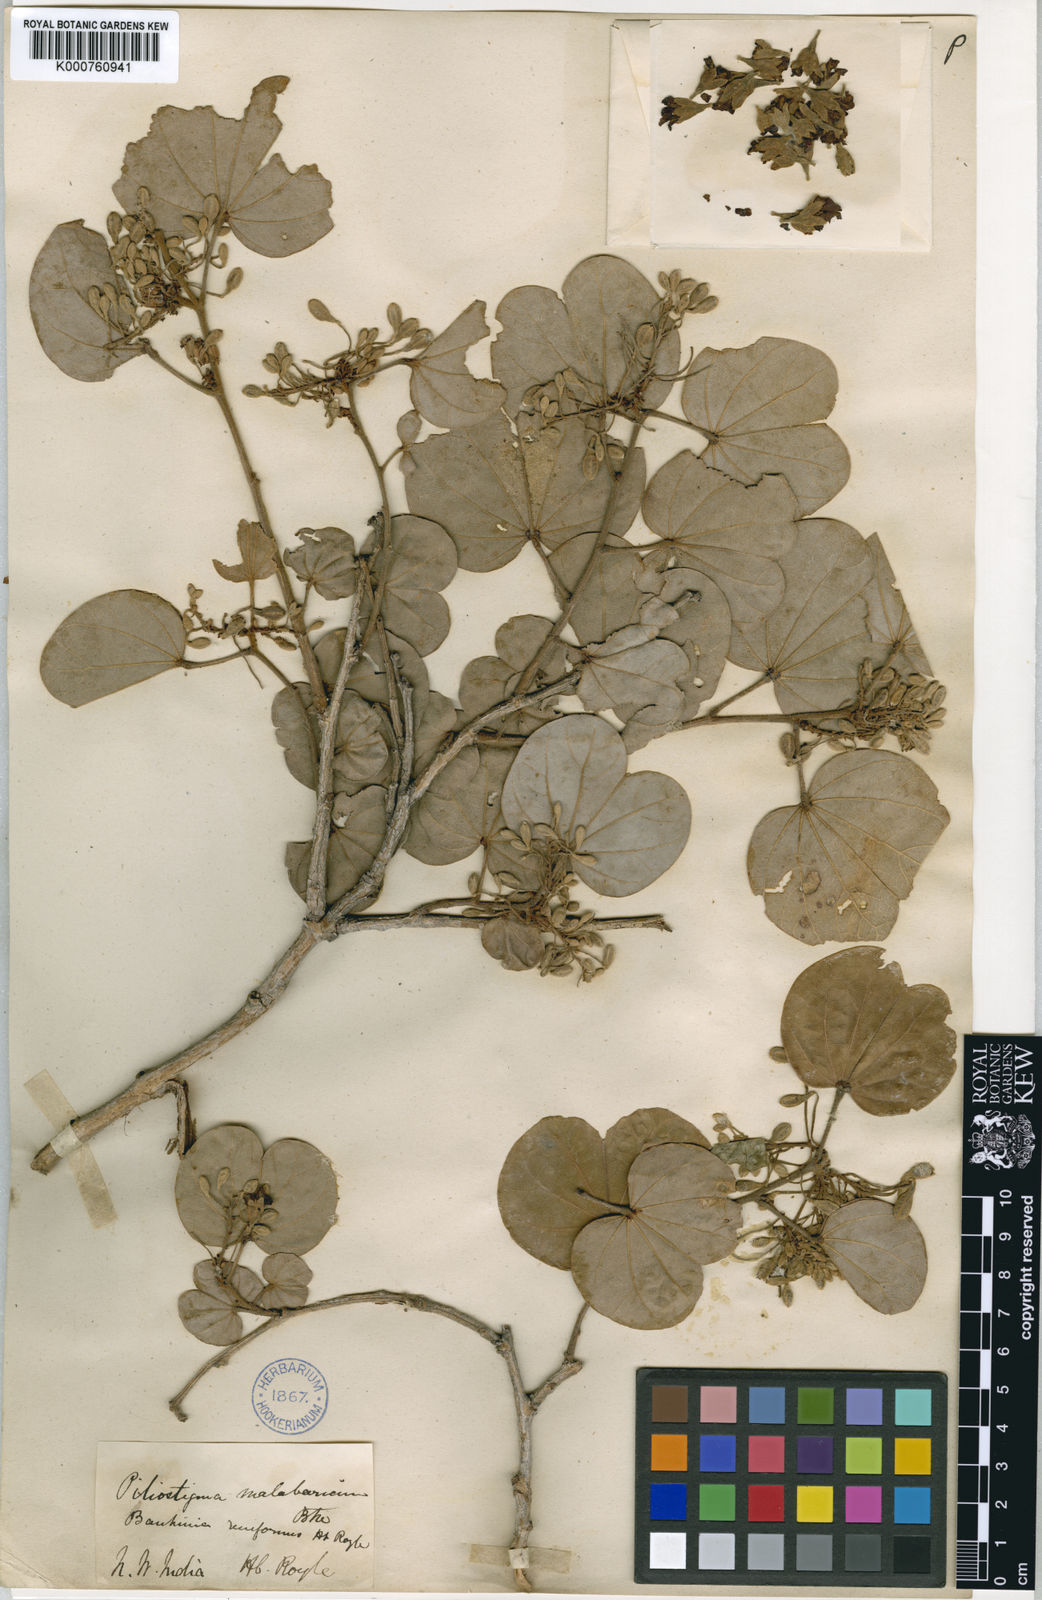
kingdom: Plantae
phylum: Tracheophyta
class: Magnoliopsida
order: Fabales
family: Fabaceae
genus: Piliostigma
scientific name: Piliostigma malabaricum
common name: Malabar bauhinia
